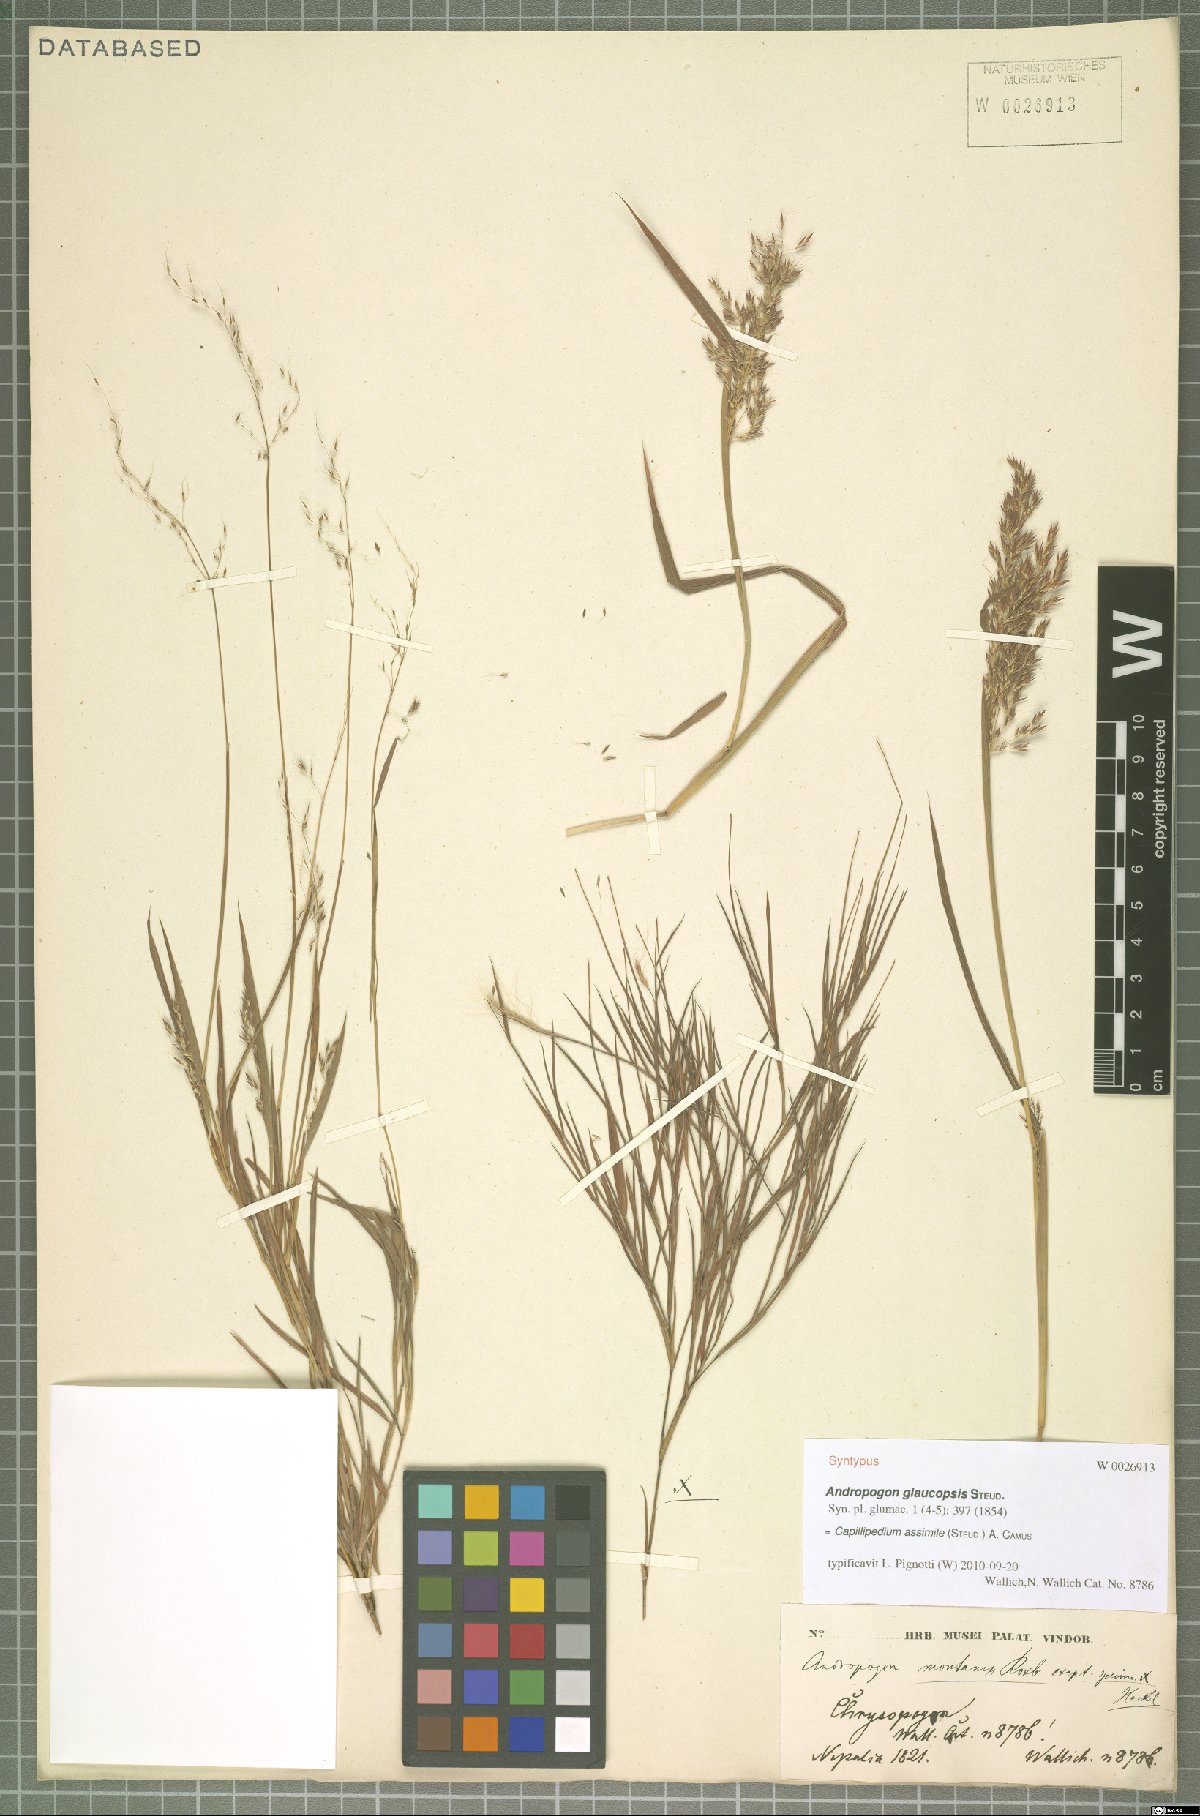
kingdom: Plantae
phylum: Tracheophyta
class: Liliopsida
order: Poales
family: Poaceae
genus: Capillipedium
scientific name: Capillipedium assimile
